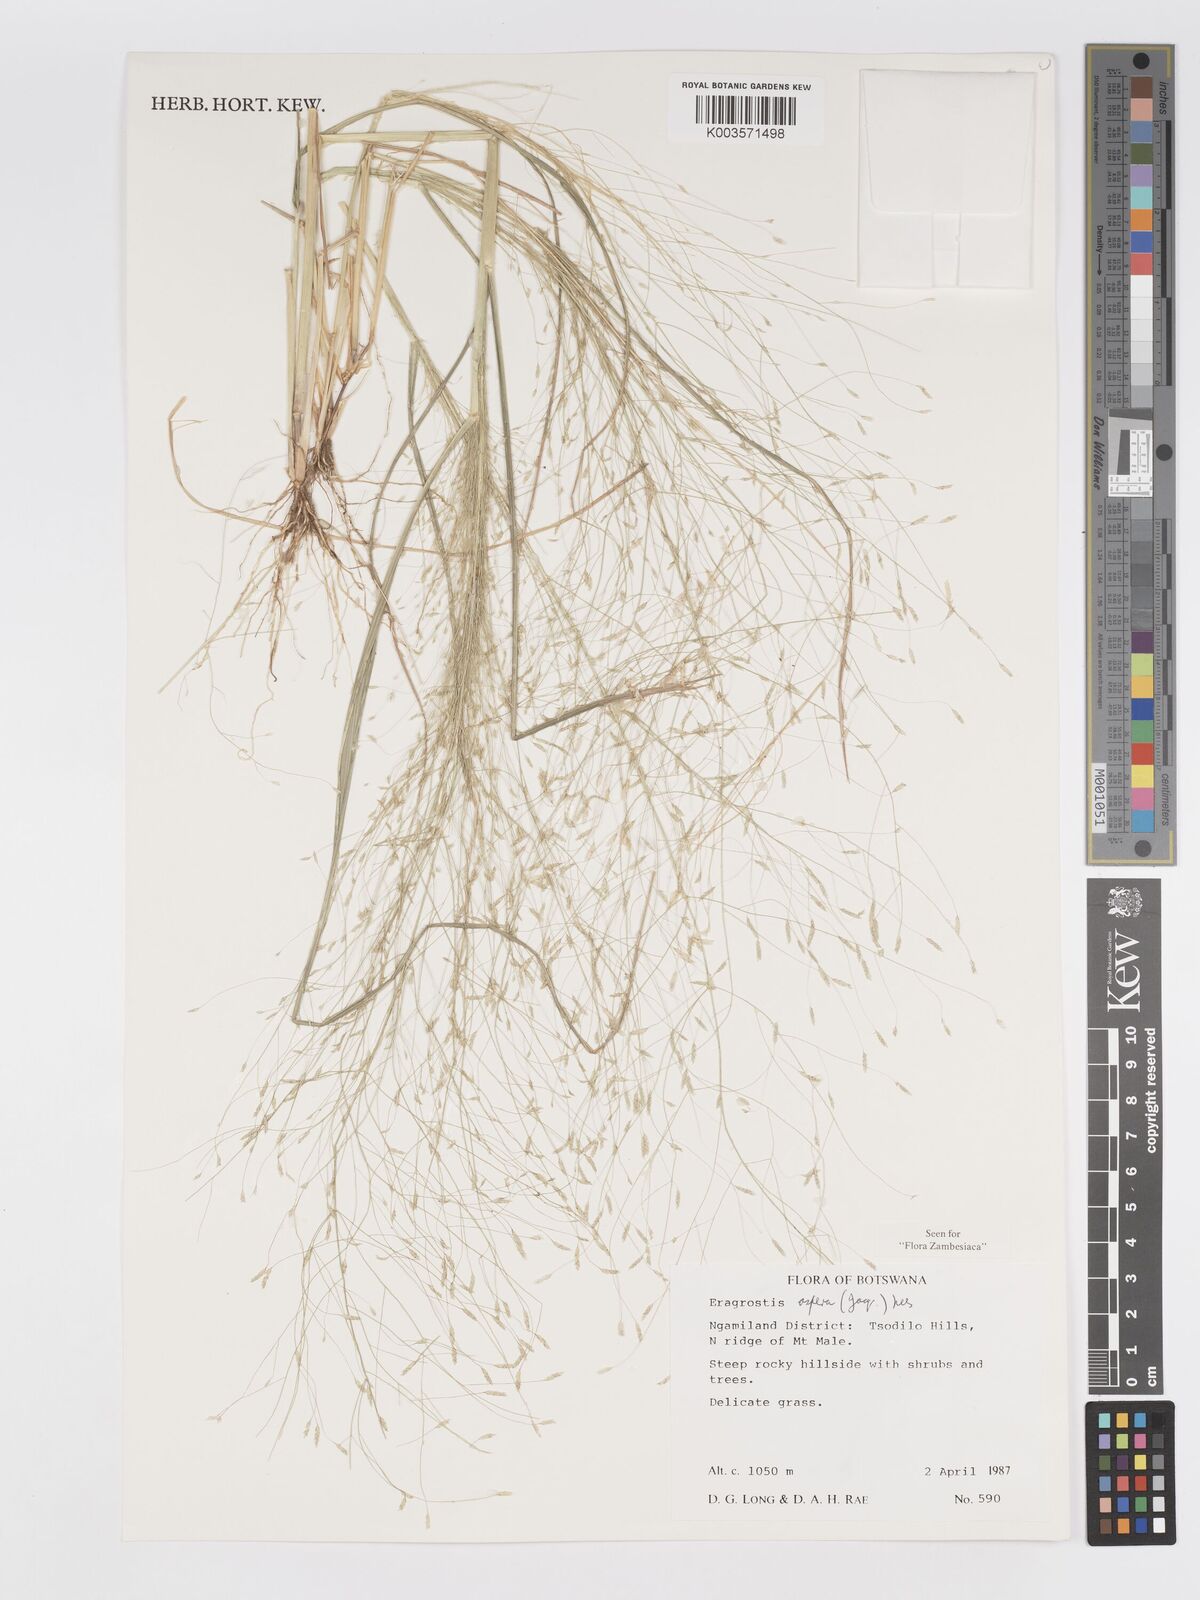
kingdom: Plantae
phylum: Tracheophyta
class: Liliopsida
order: Poales
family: Poaceae
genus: Eragrostis
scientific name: Eragrostis aspera
